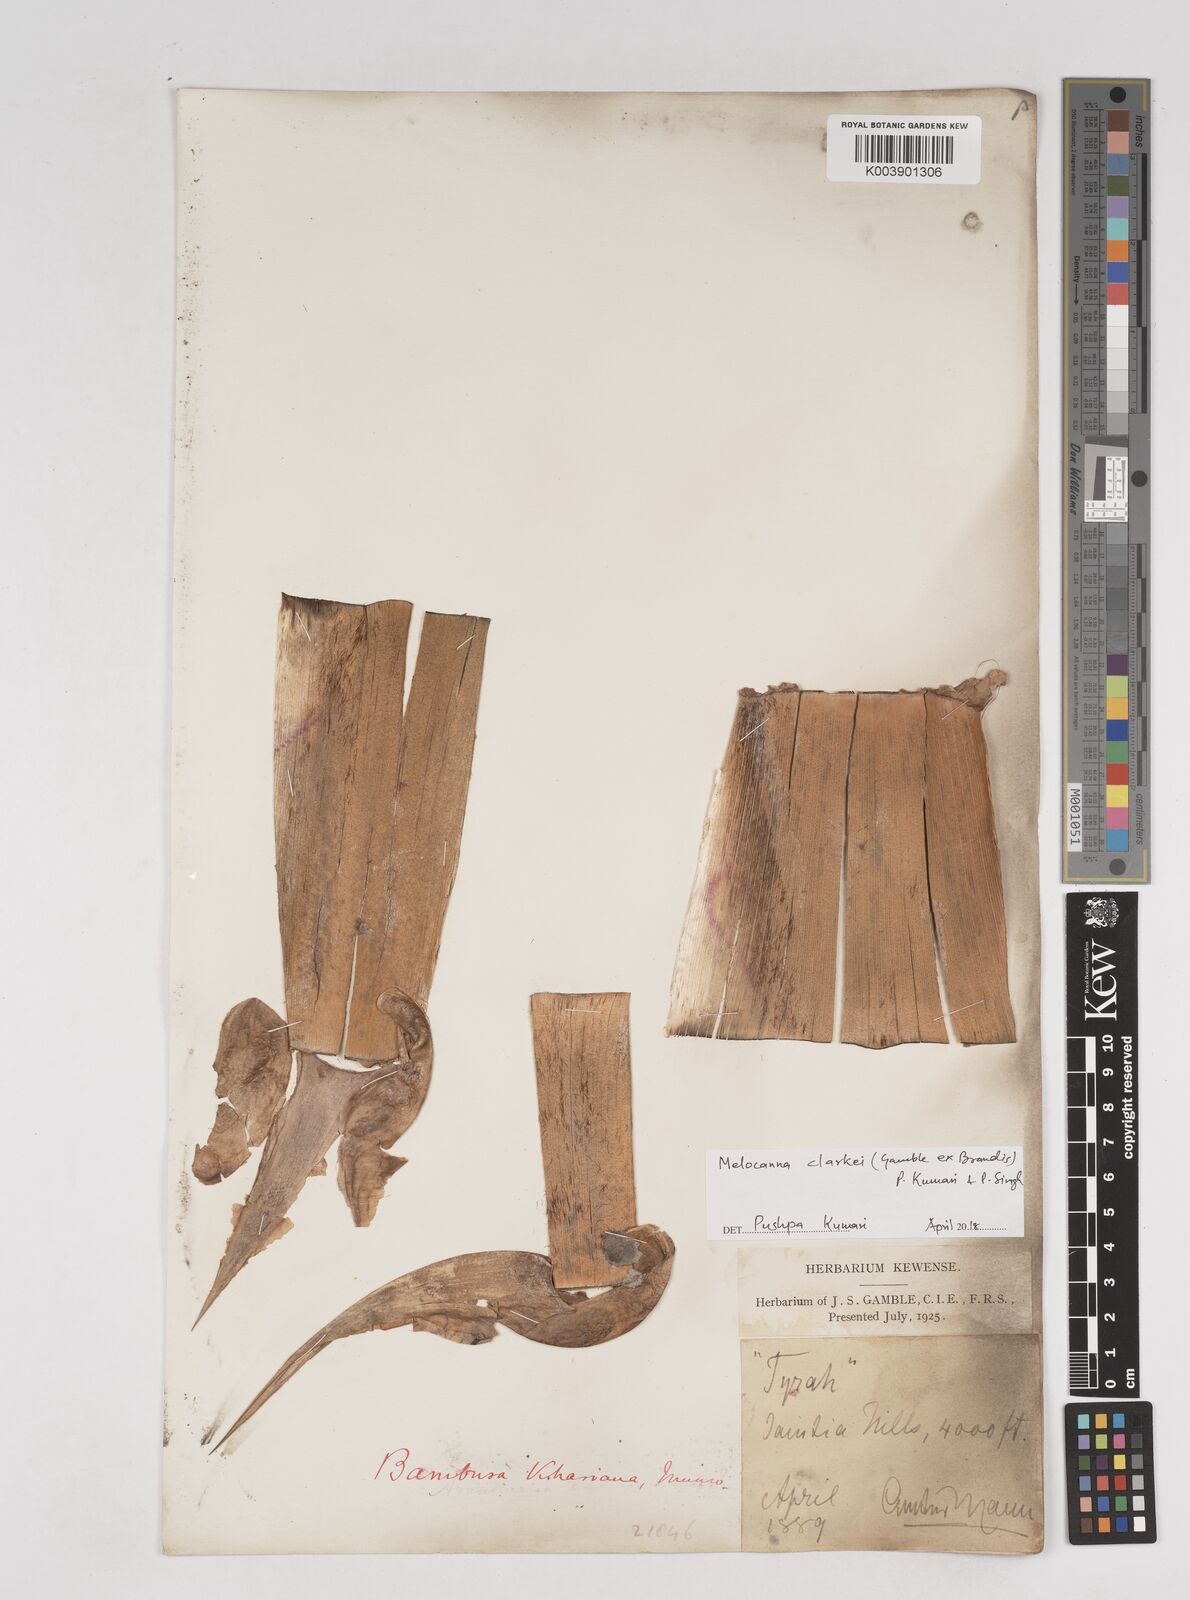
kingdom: Plantae
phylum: Tracheophyta
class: Liliopsida
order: Poales
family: Poaceae
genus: Melocanna
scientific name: Melocanna clarkei
